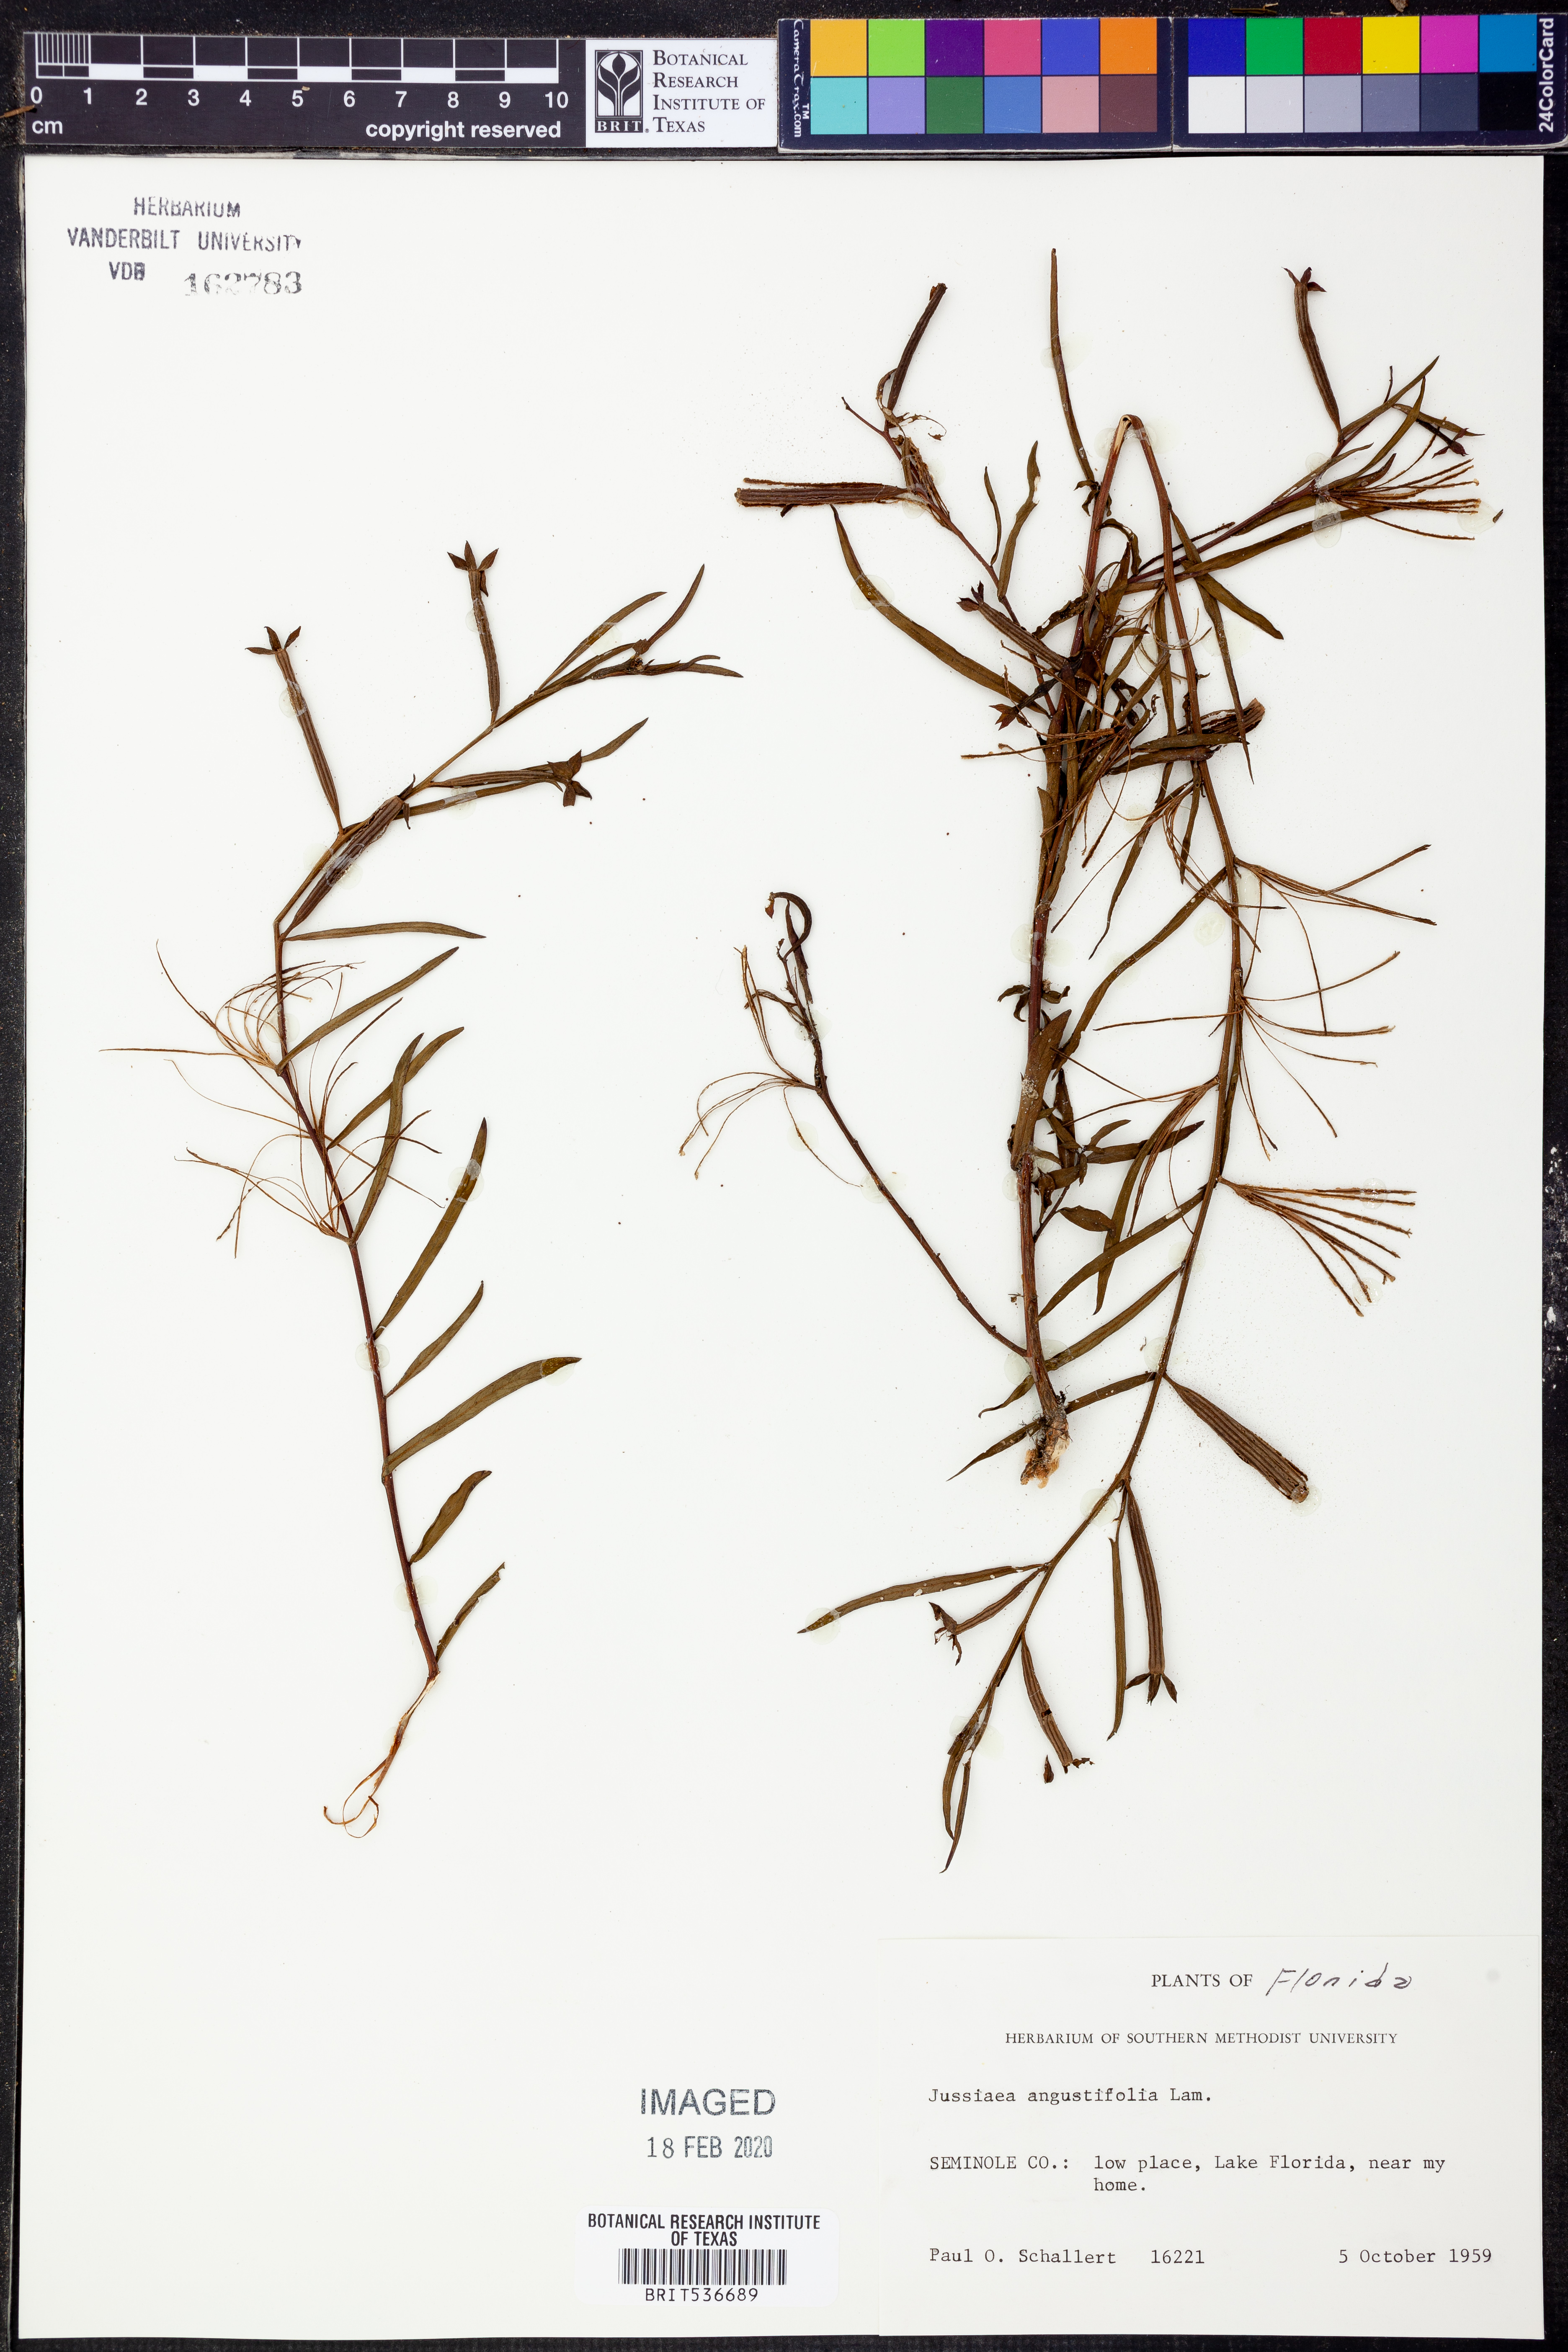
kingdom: Plantae
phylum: Tracheophyta
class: Magnoliopsida
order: Myrtales
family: Onagraceae
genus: Ludwigia
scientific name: Ludwigia octovalvis
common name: Water-primrose
